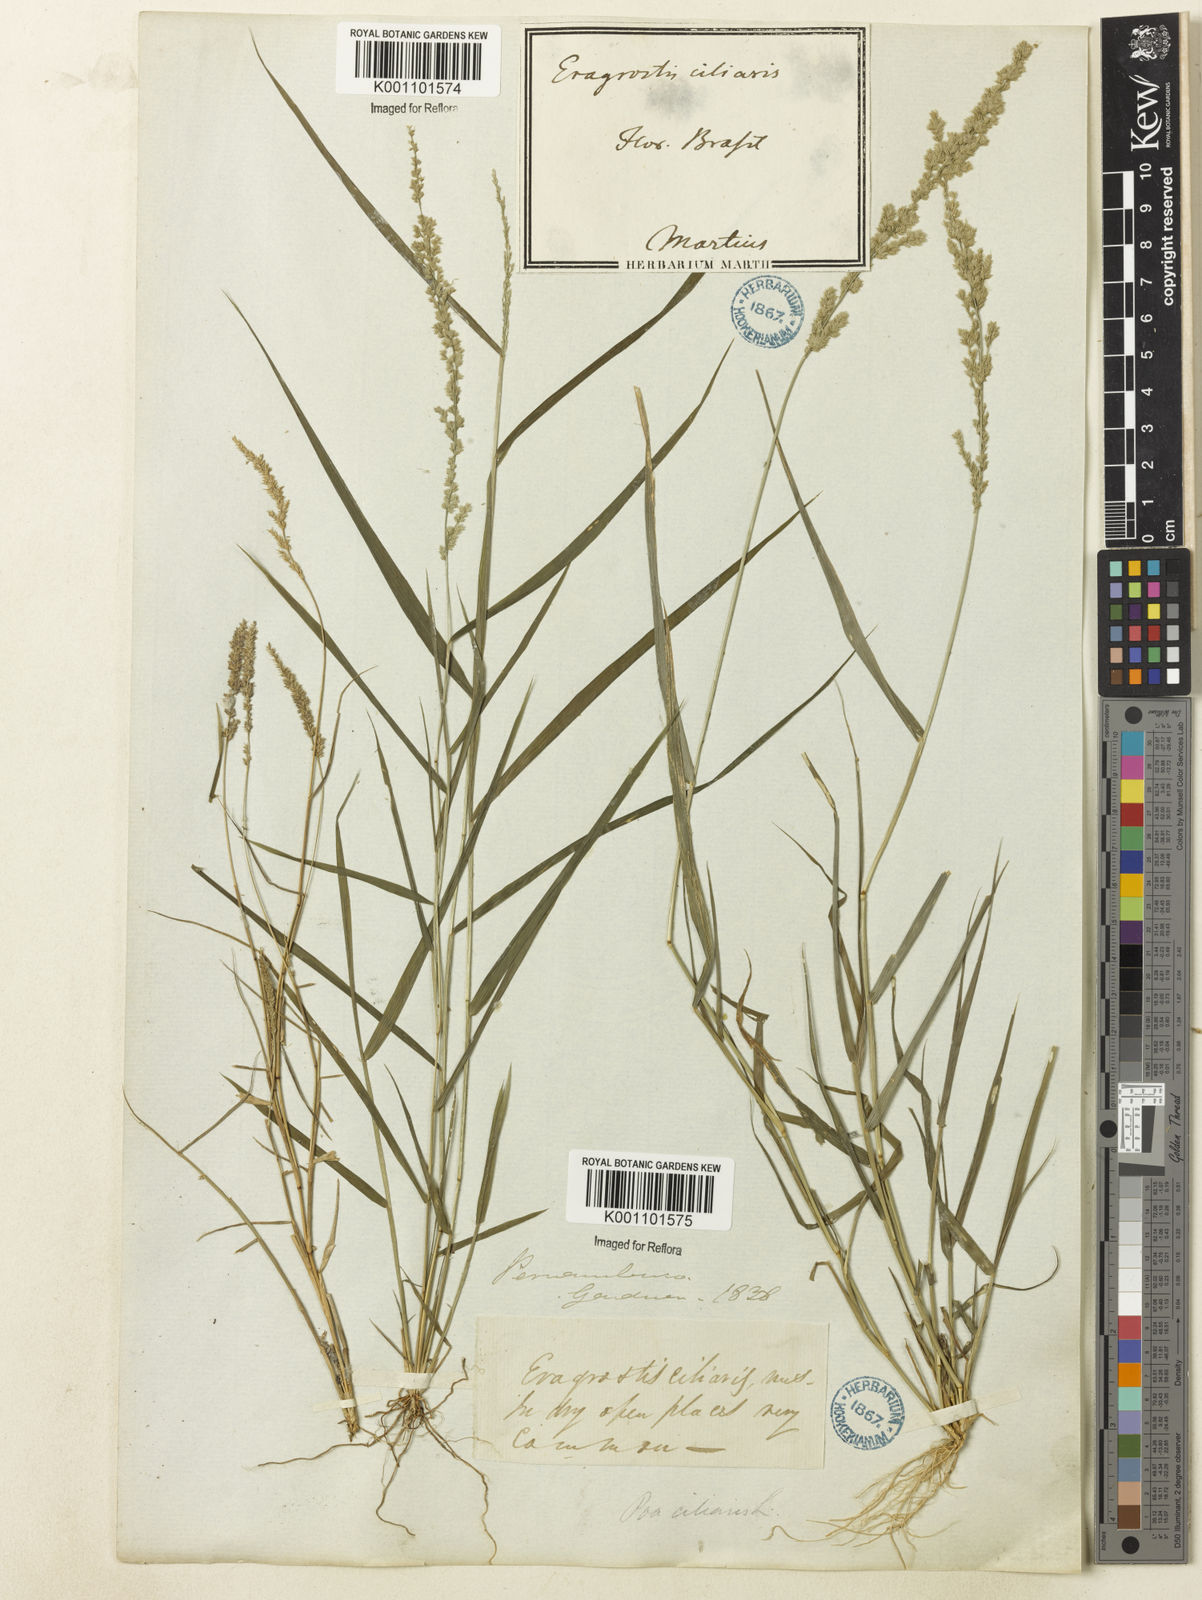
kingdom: Plantae
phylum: Tracheophyta
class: Liliopsida
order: Poales
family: Poaceae
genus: Eragrostis
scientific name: Eragrostis ciliaris
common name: Gophertail lovegrass
